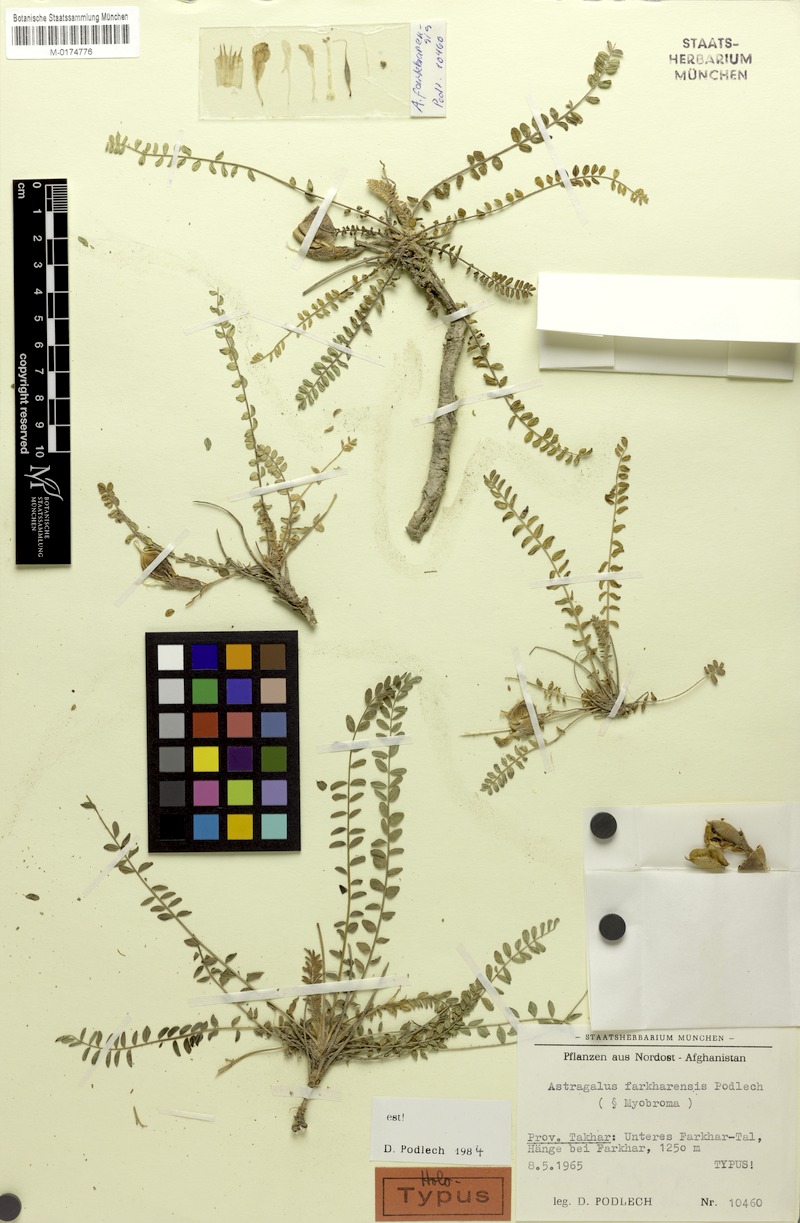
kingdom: Plantae
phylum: Tracheophyta
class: Magnoliopsida
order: Fabales
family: Fabaceae
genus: Astragalus
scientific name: Astragalus farkharensis
